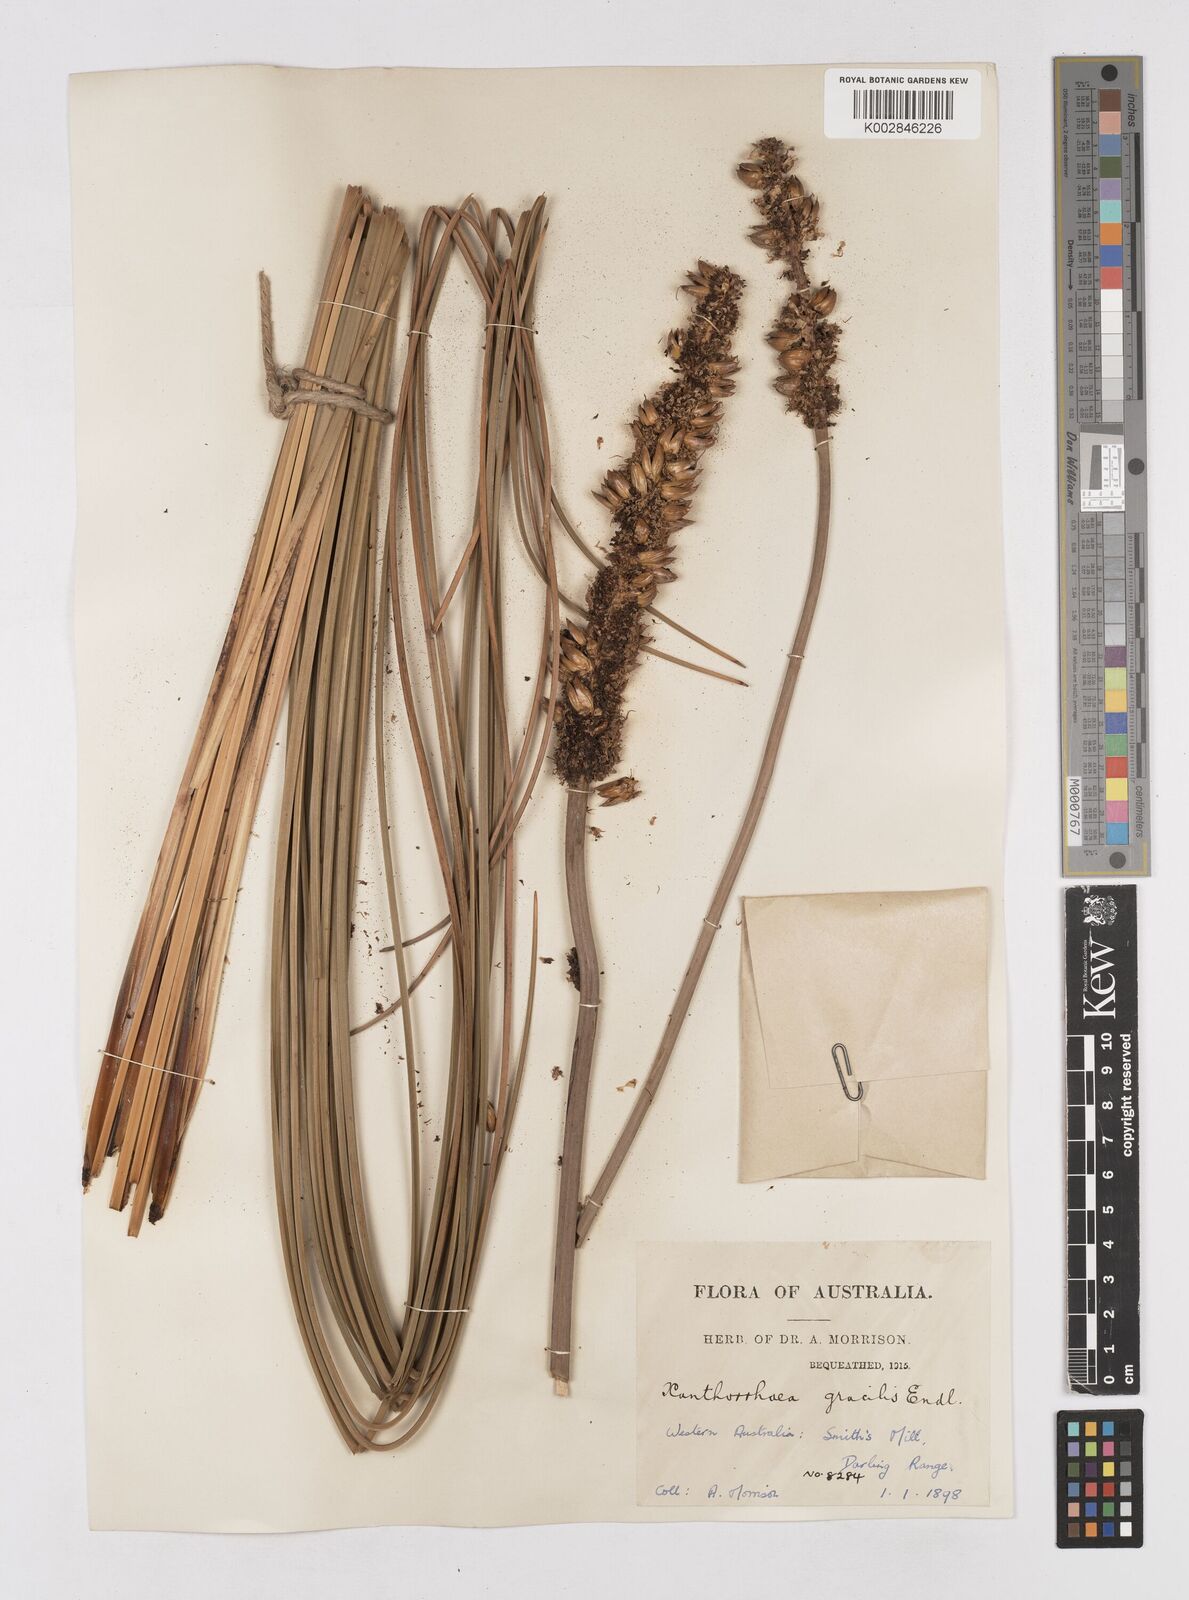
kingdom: Plantae
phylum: Tracheophyta
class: Liliopsida
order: Asparagales
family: Asphodelaceae
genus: Xanthorrhoea
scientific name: Xanthorrhoea gracilis
